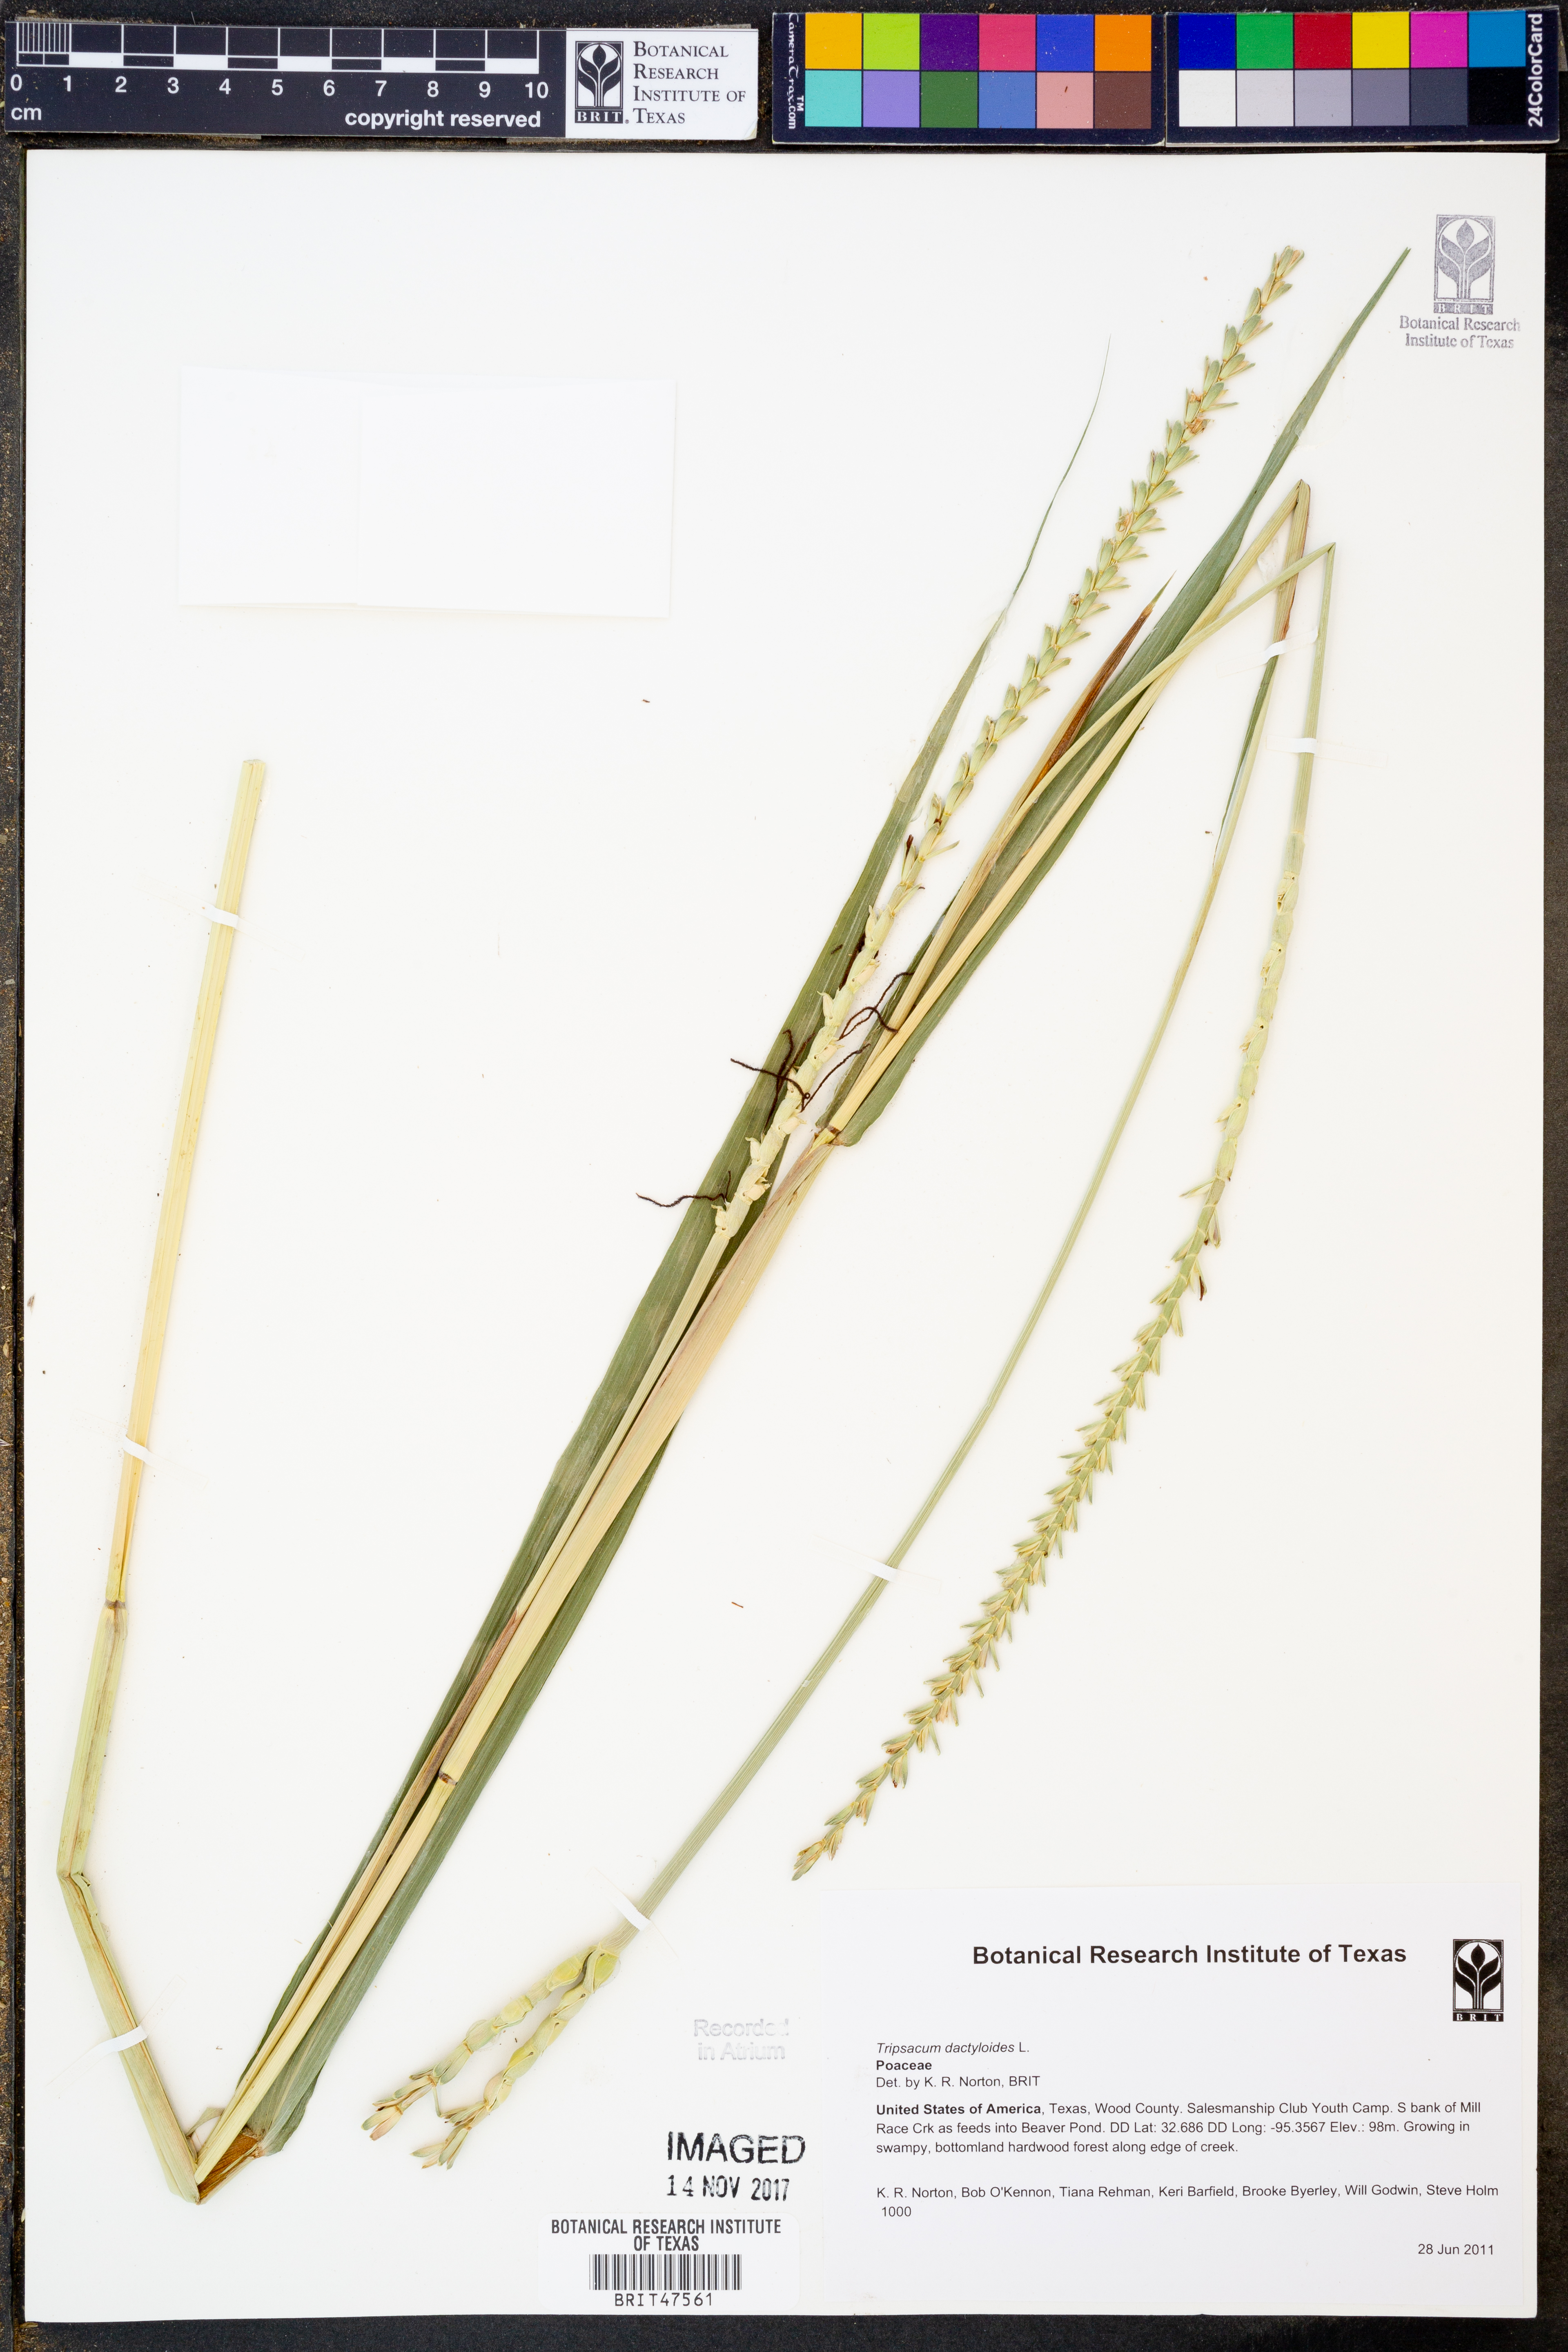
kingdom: Plantae
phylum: Tracheophyta
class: Liliopsida
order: Poales
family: Poaceae
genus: Tripsacum
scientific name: Tripsacum dactyloides
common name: Buffalo-grass
